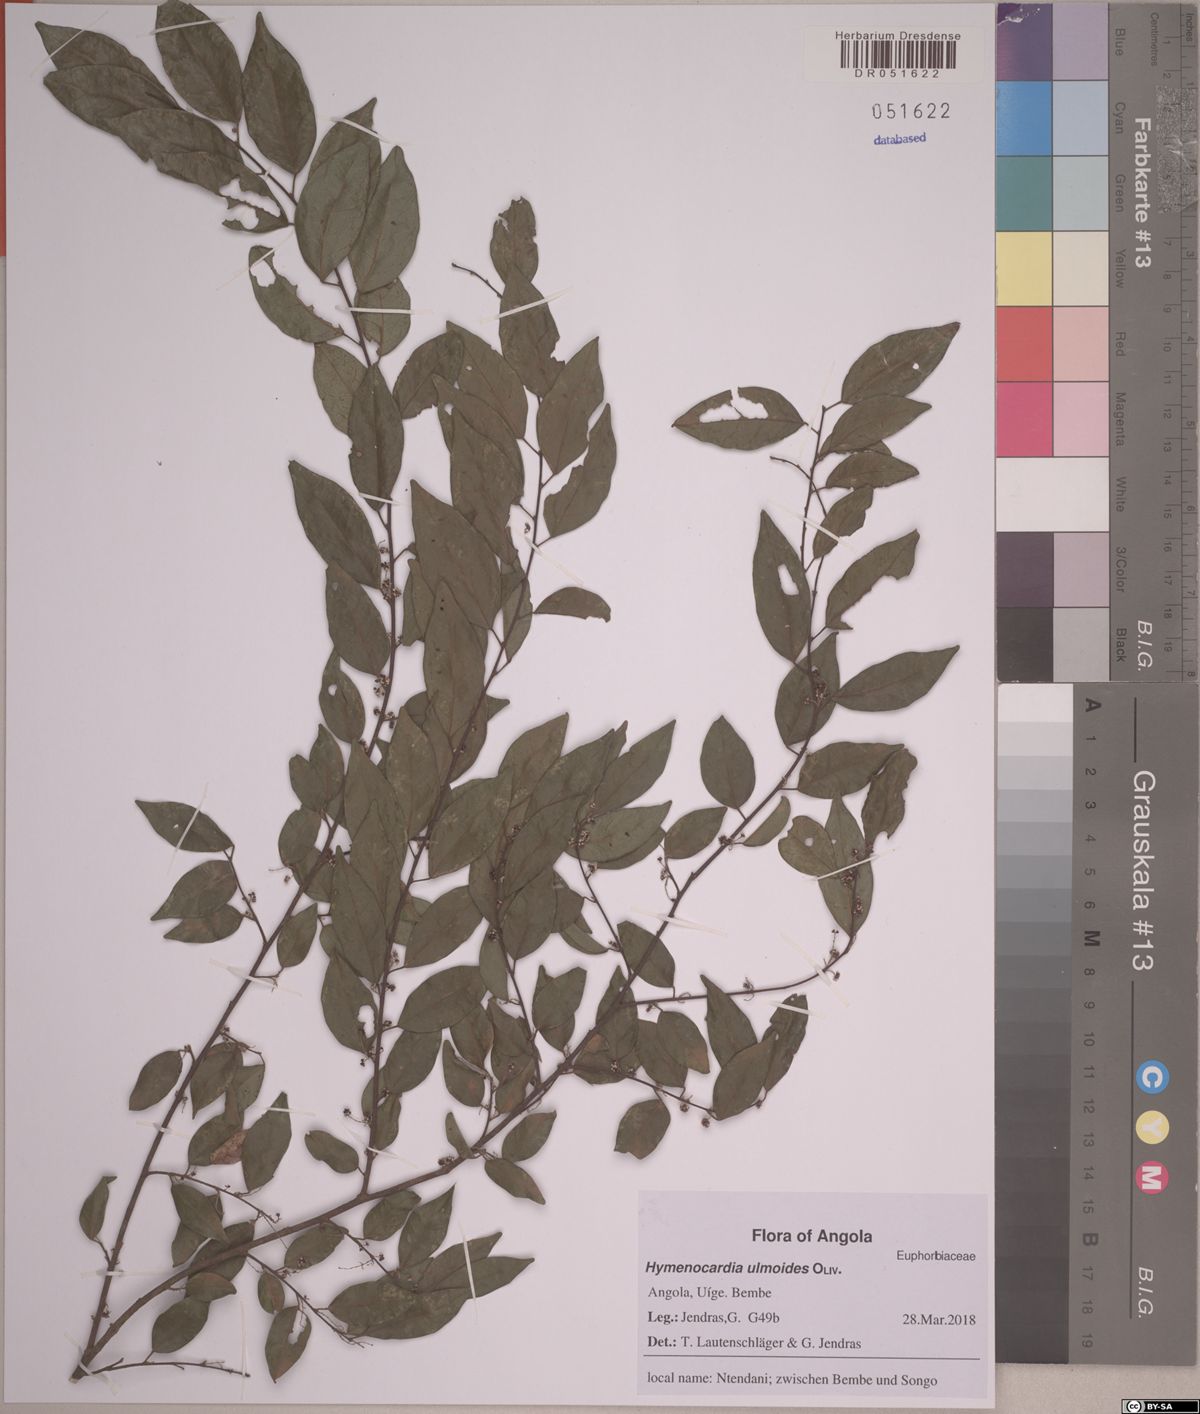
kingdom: Plantae
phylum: Tracheophyta
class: Magnoliopsida
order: Malpighiales
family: Phyllanthaceae
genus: Hymenocardia
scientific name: Hymenocardia ulmoides
